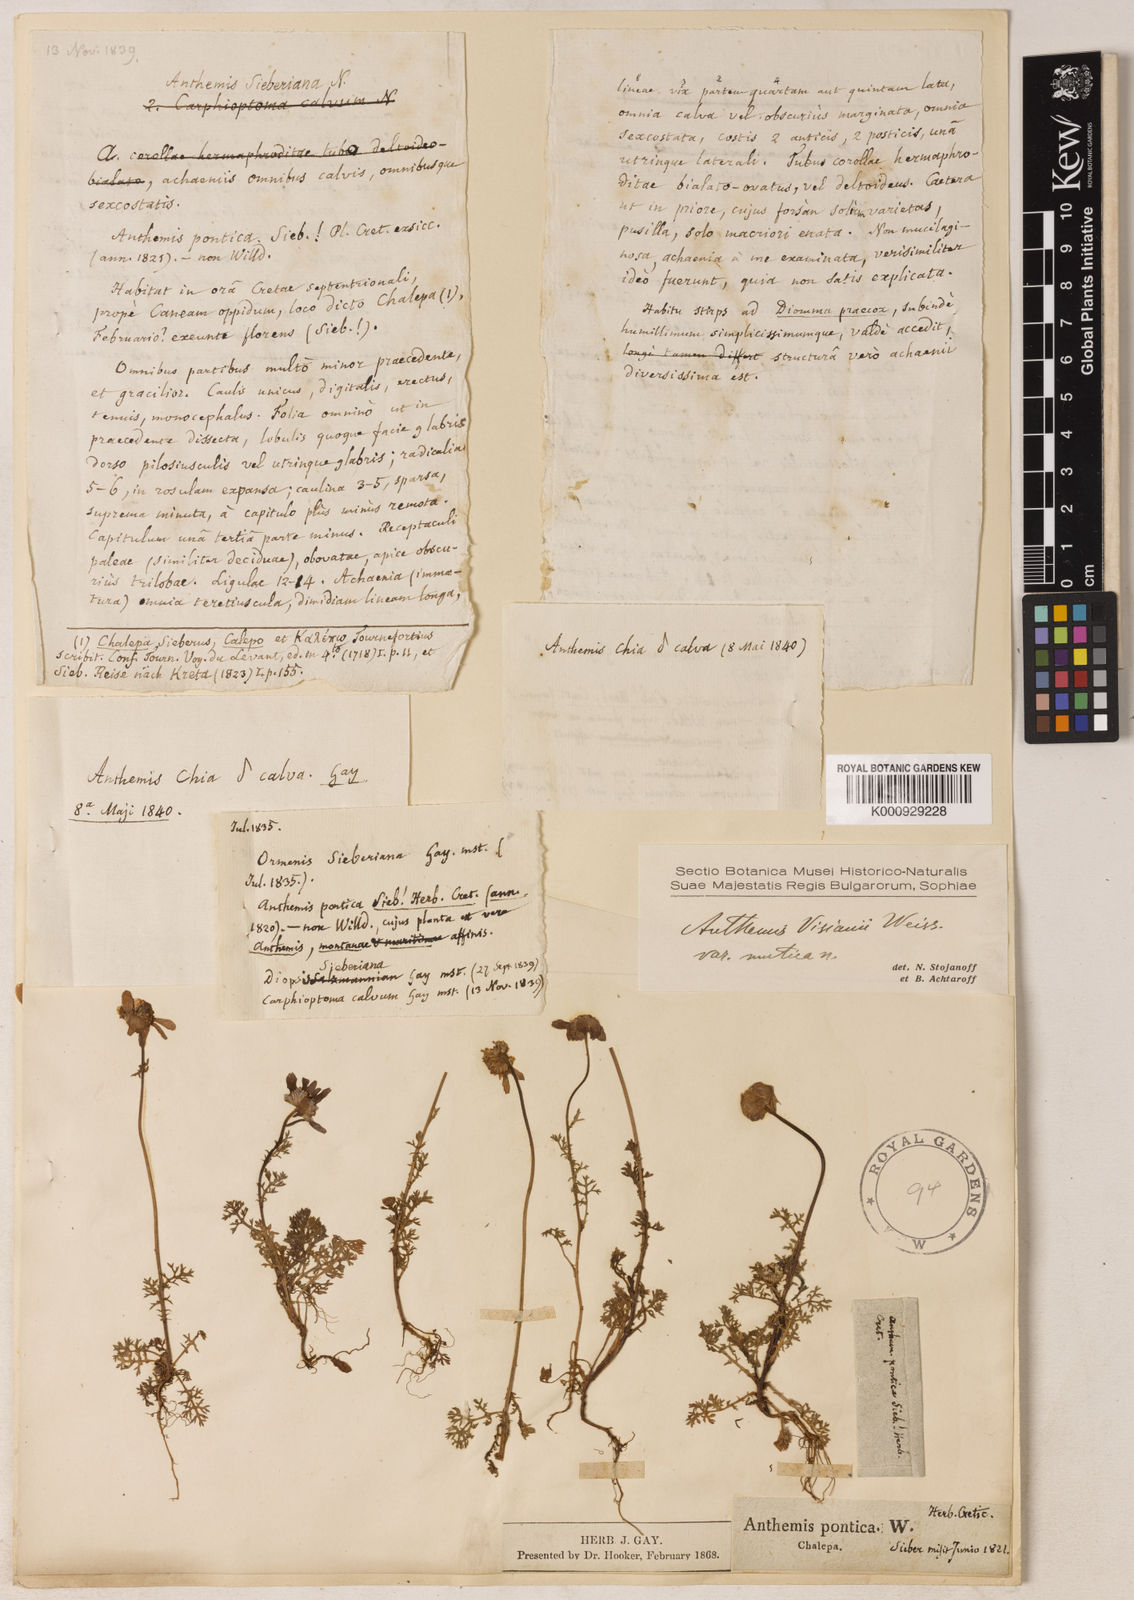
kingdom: Plantae
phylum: Tracheophyta
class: Magnoliopsida
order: Asterales
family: Asteraceae
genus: Anthemis
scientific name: Anthemis chia
